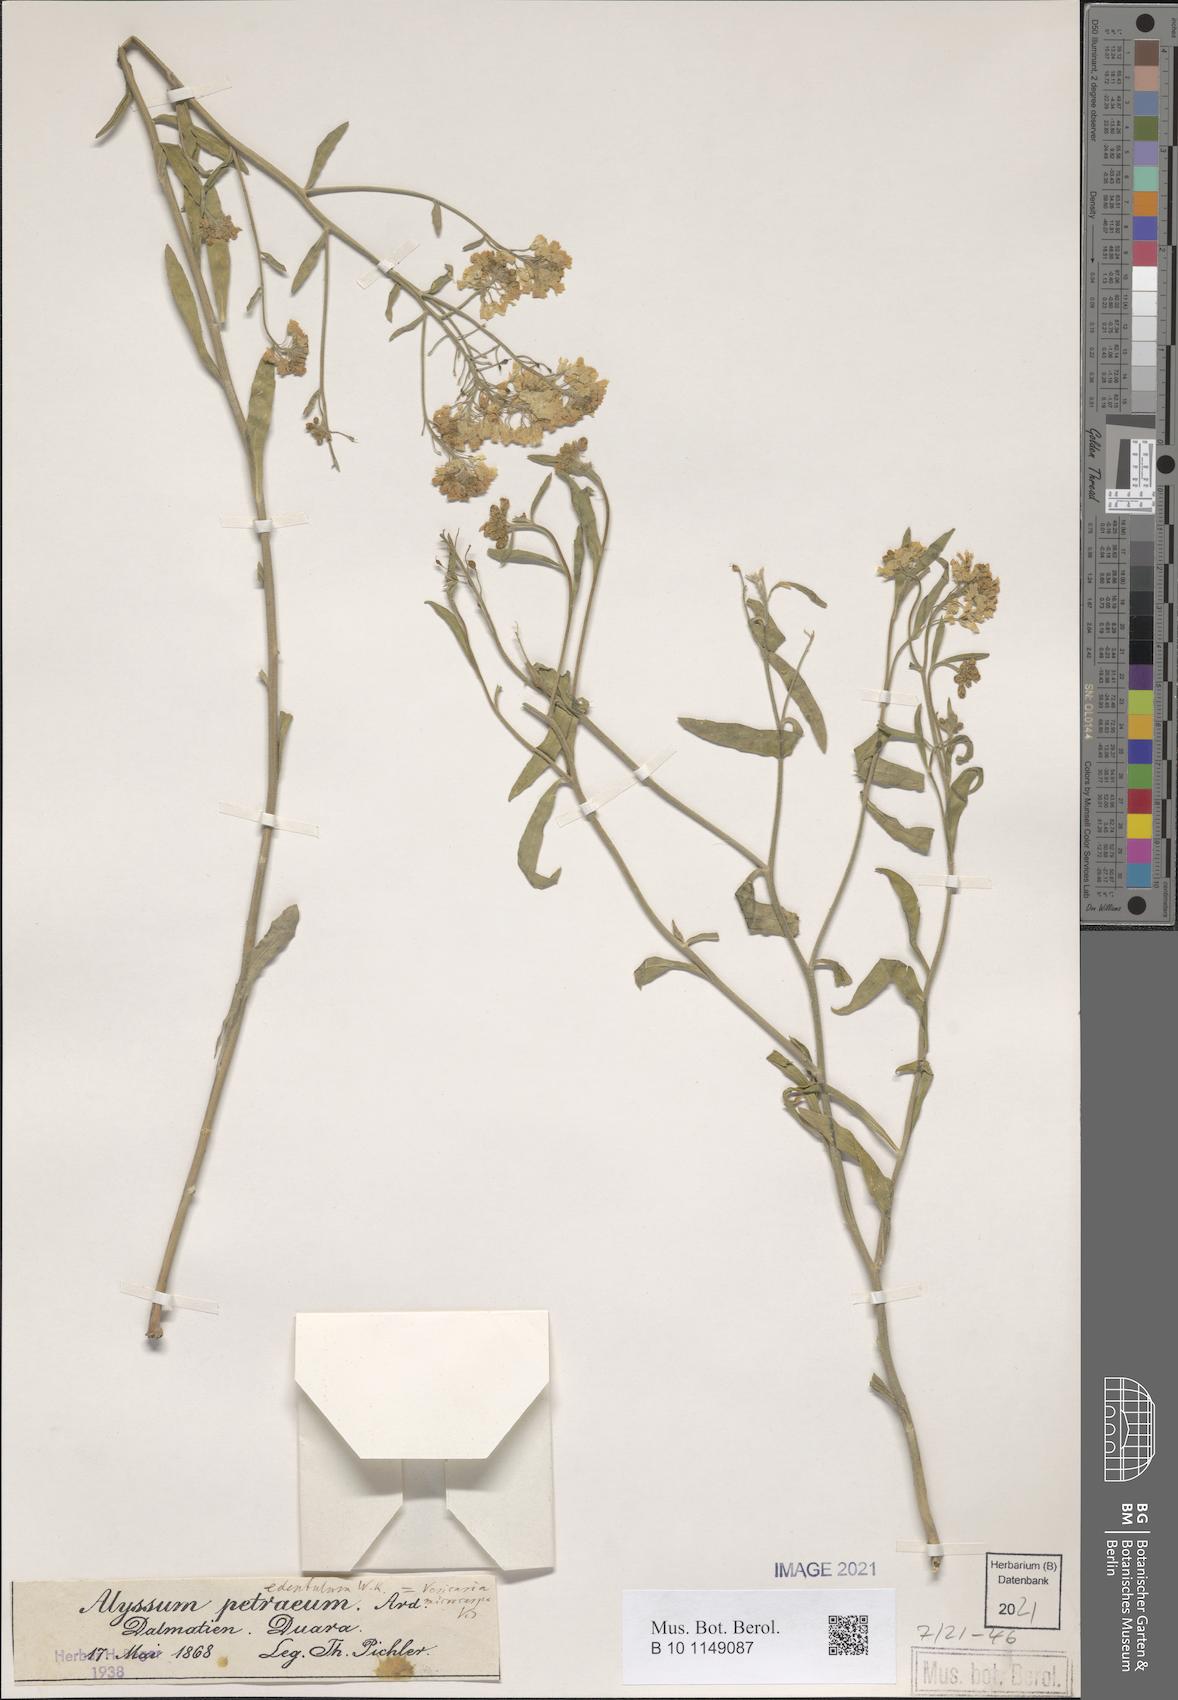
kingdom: Plantae
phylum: Tracheophyta
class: Magnoliopsida
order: Brassicales
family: Brassicaceae
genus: Aurinia
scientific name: Aurinia petraea
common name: Goldentuft
